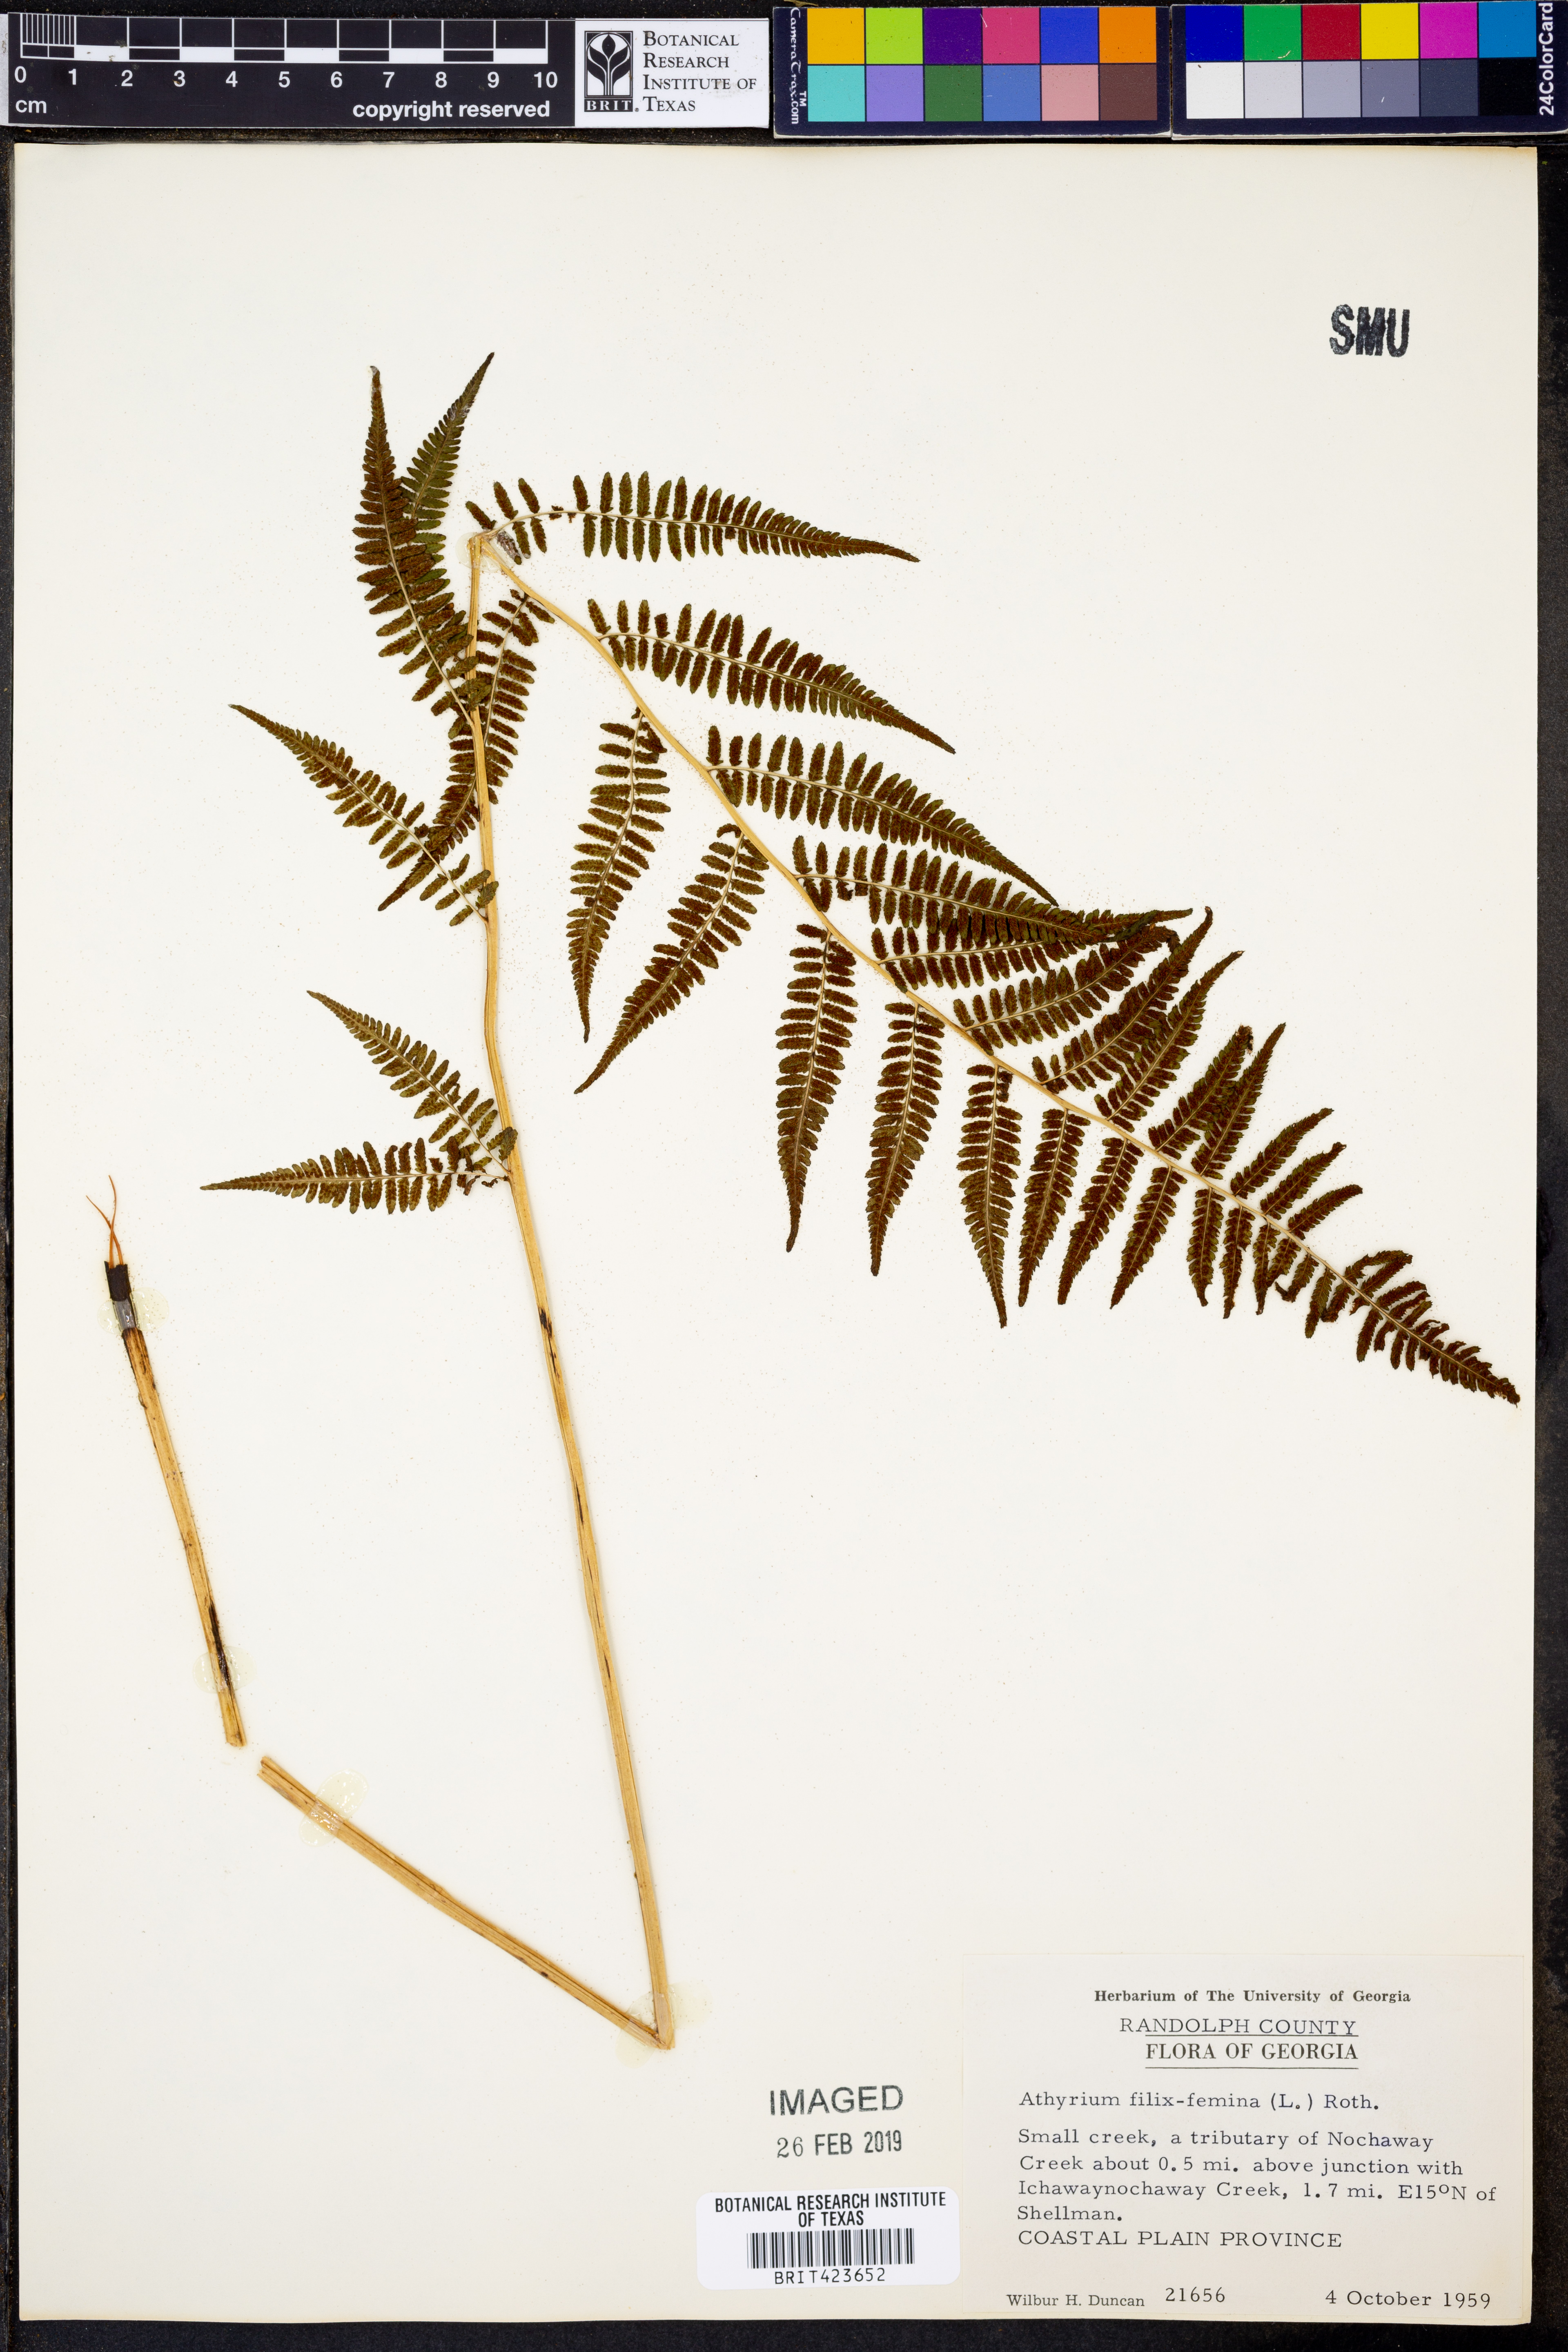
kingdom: Plantae
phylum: Tracheophyta
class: Polypodiopsida
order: Polypodiales
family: Athyriaceae
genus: Athyrium
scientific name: Athyrium filix-femina
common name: Lady fern
